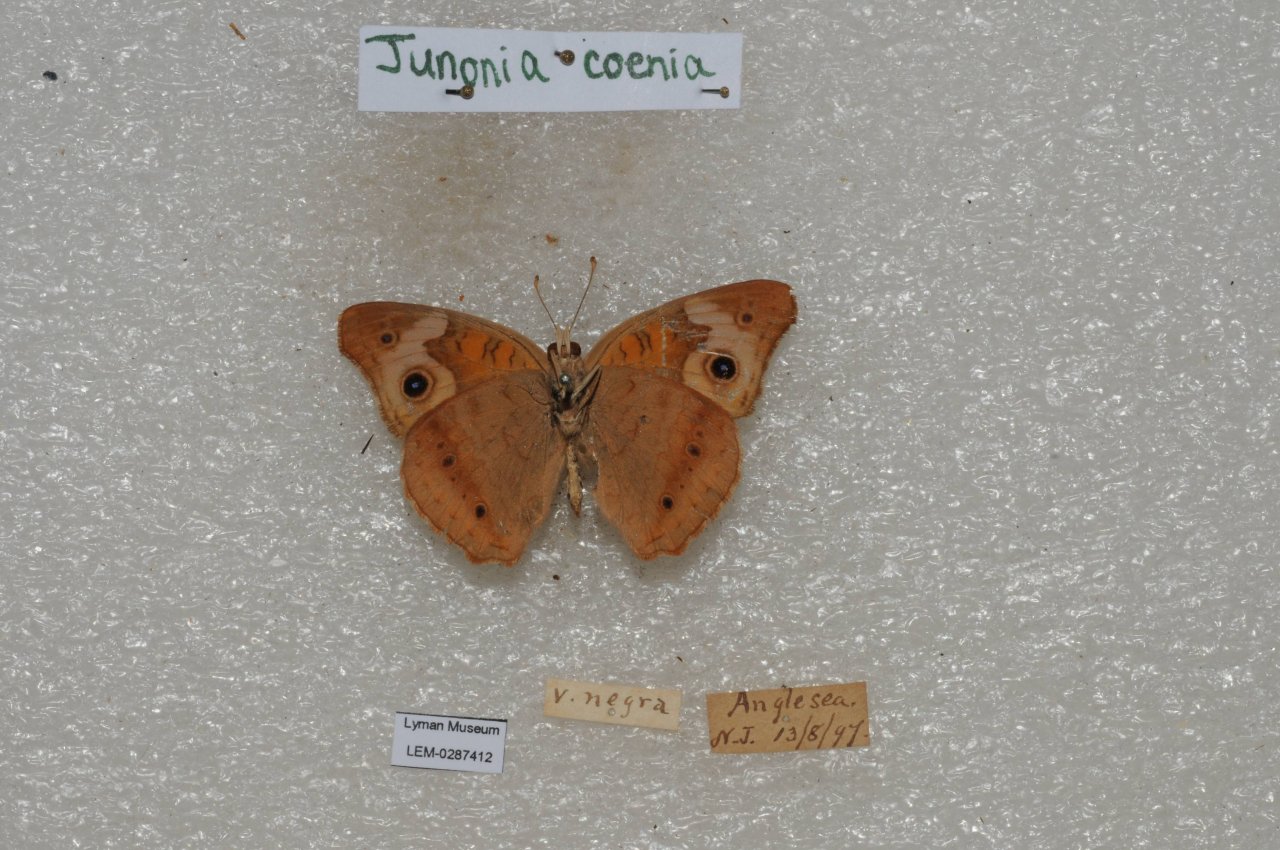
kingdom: Animalia
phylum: Arthropoda
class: Insecta
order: Lepidoptera
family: Nymphalidae
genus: Junonia
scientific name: Junonia coenia
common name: Common Buckeye
